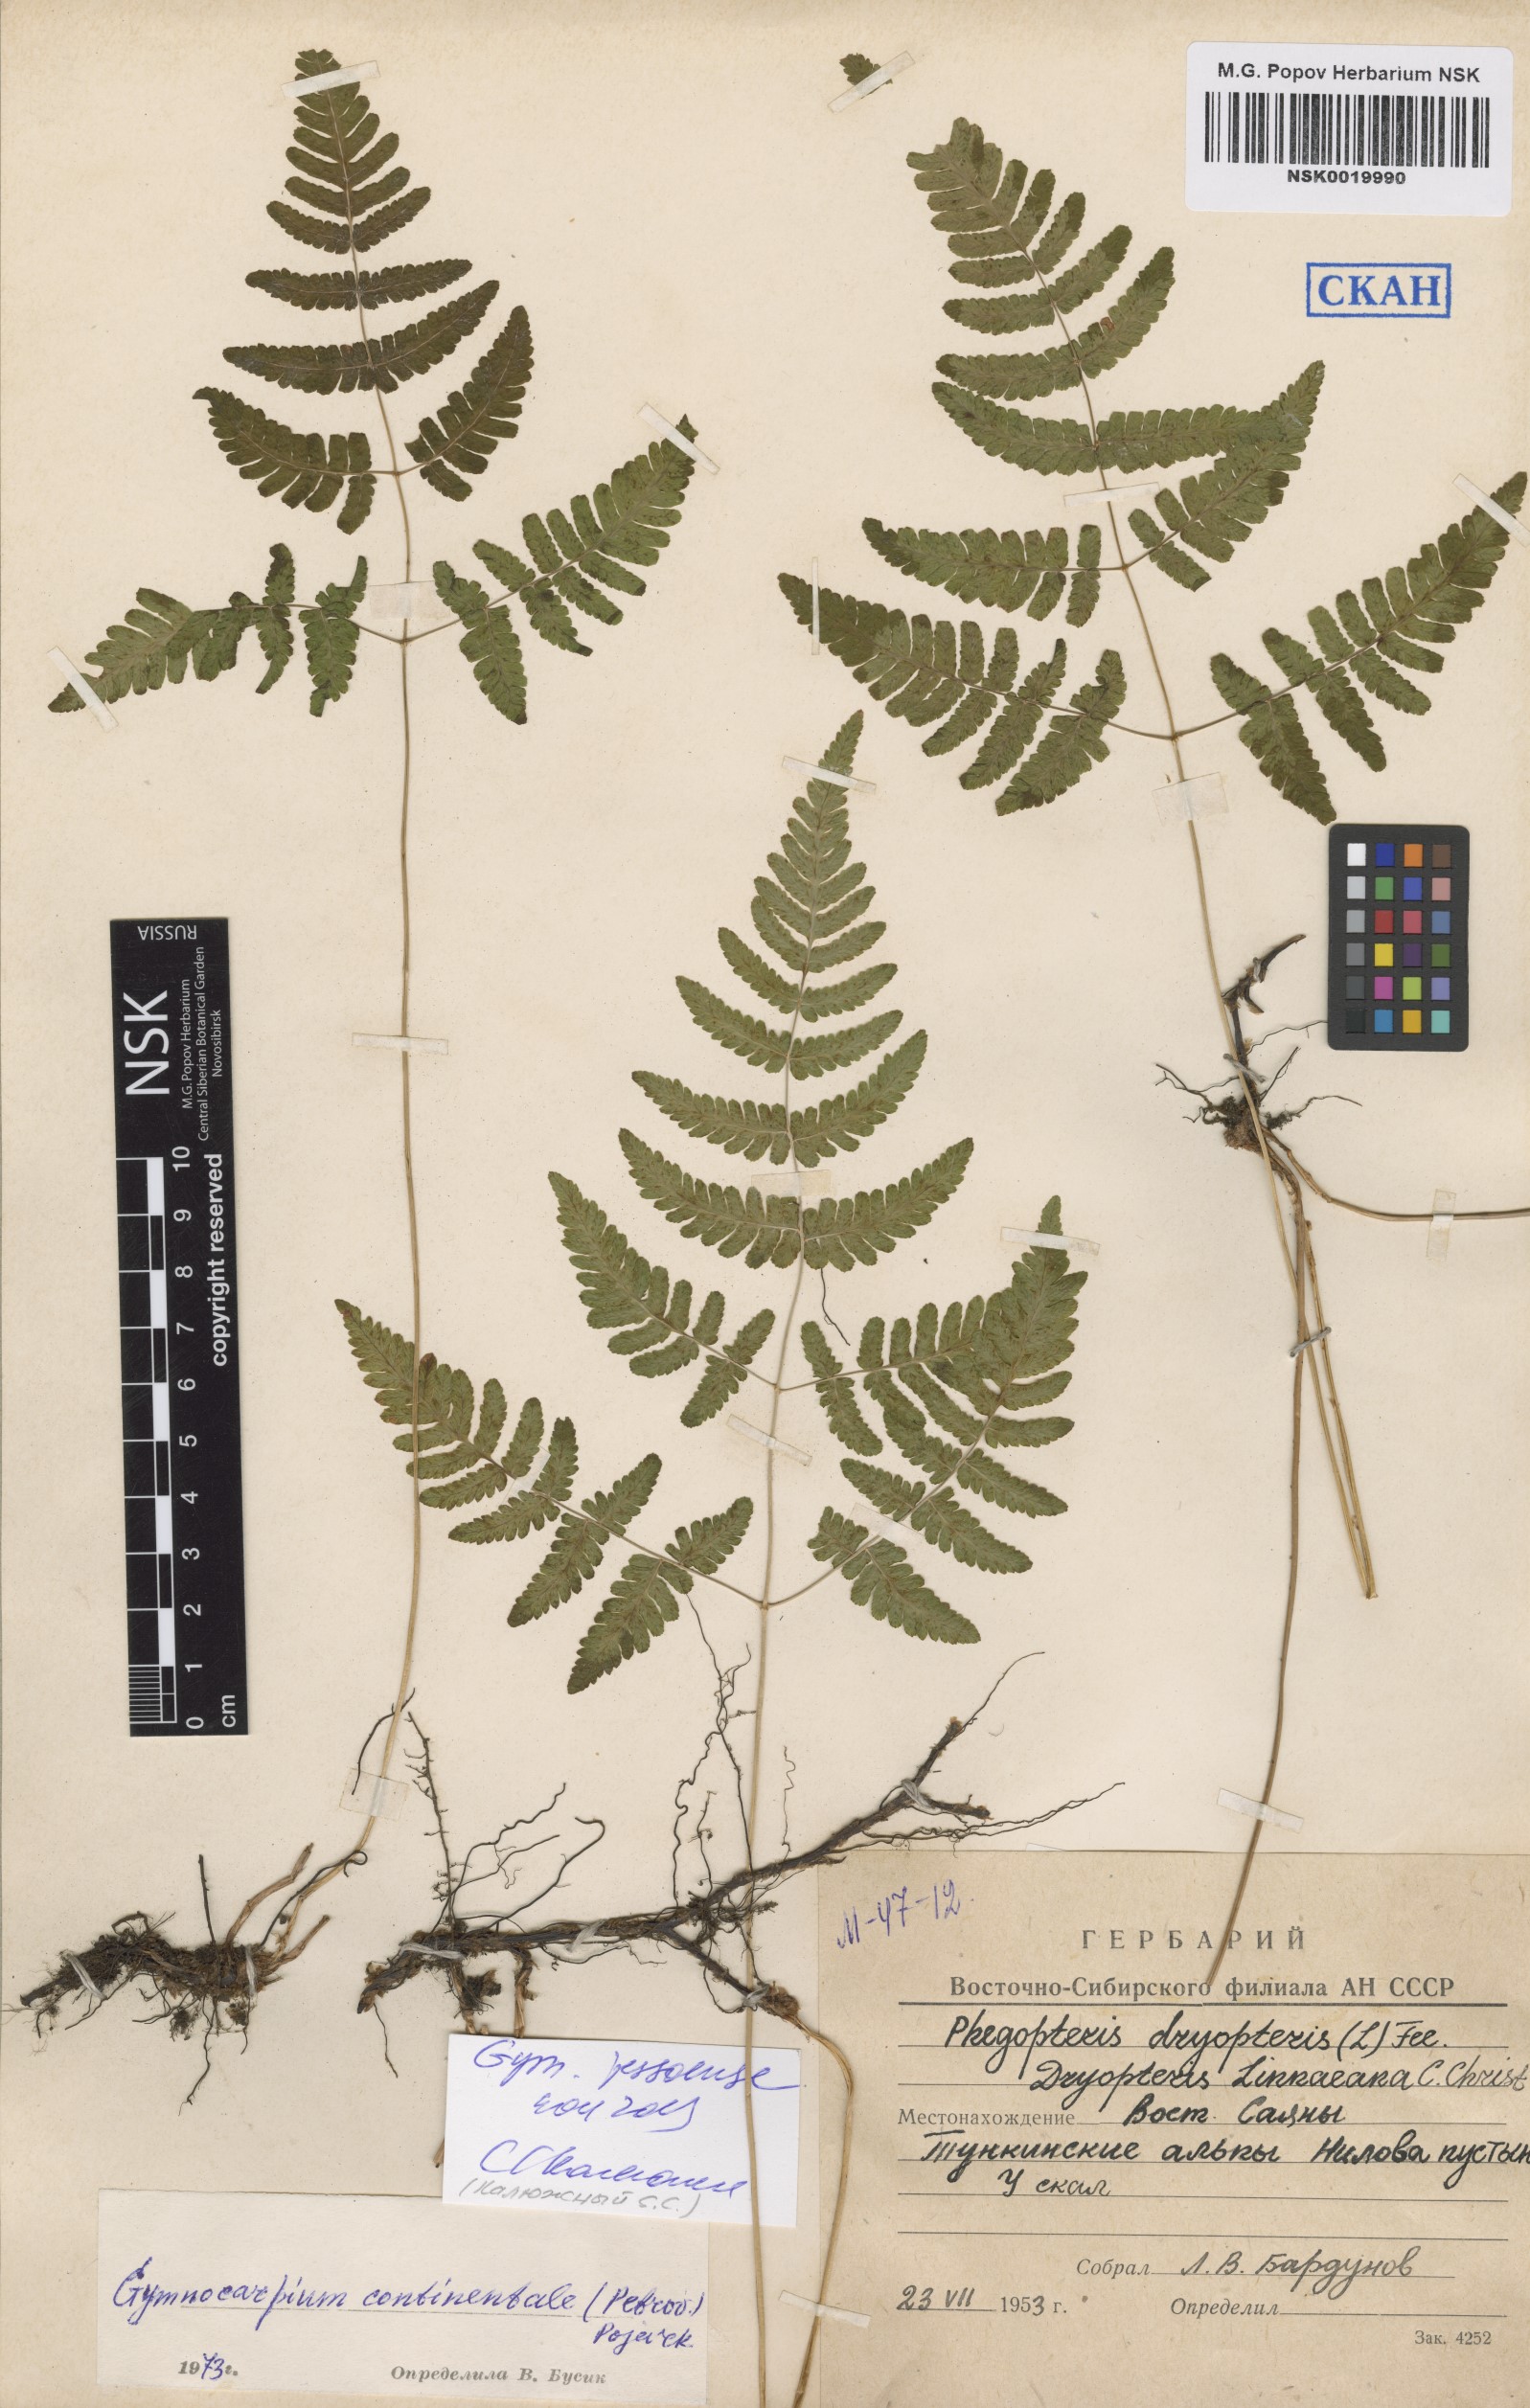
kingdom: Plantae
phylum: Tracheophyta
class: Polypodiopsida
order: Polypodiales
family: Cystopteridaceae
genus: Gymnocarpium
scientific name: Gymnocarpium jessoense
